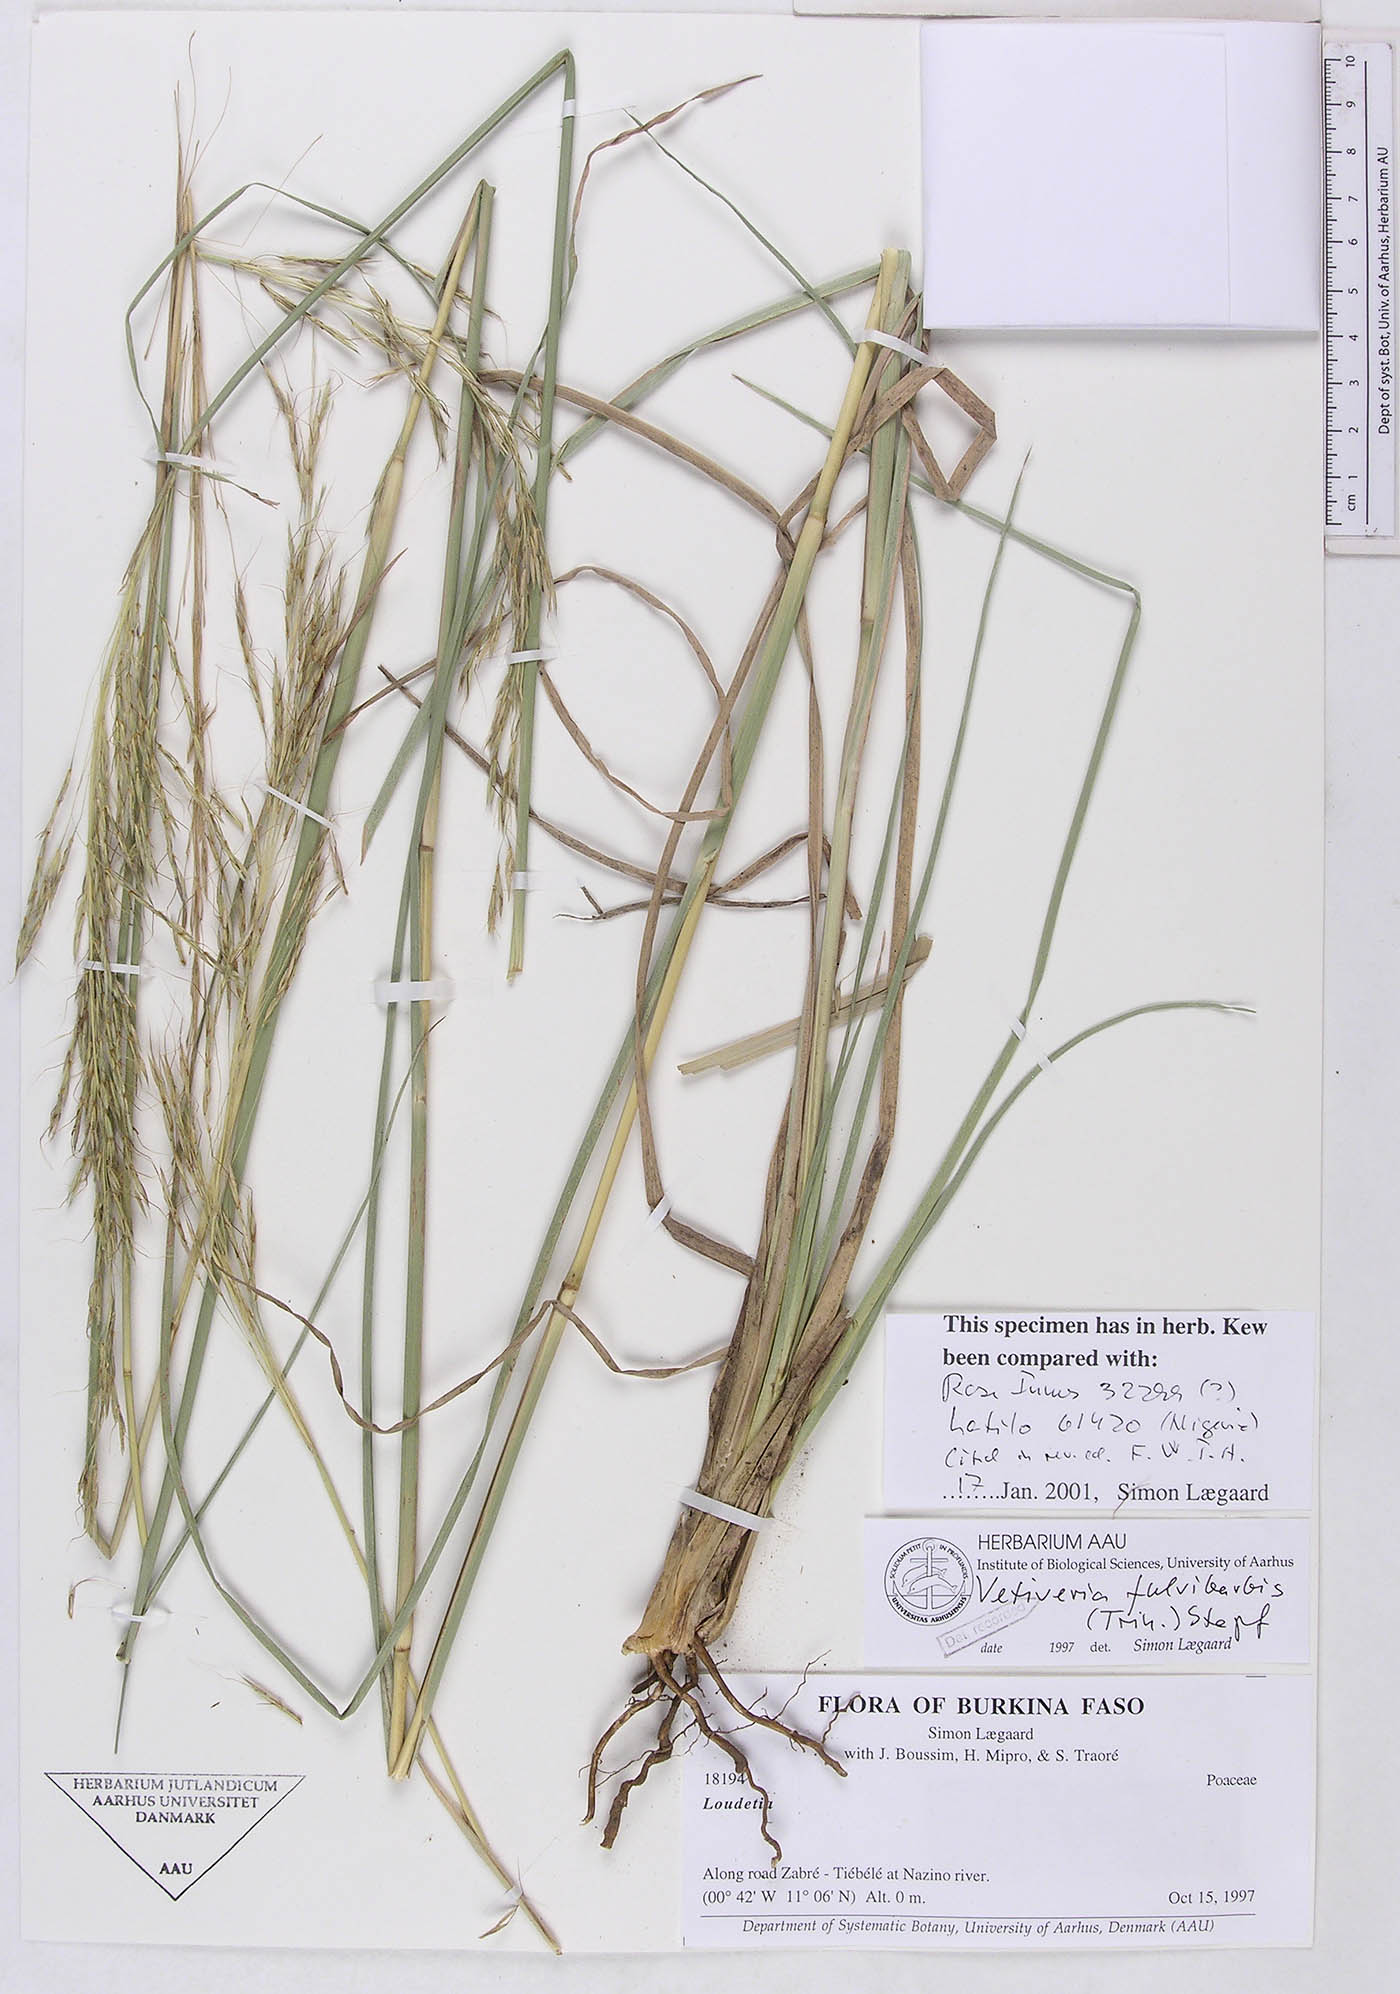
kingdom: Plantae
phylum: Tracheophyta
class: Liliopsida
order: Poales
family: Poaceae
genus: Chrysopogon
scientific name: Chrysopogon fulvibarbis
